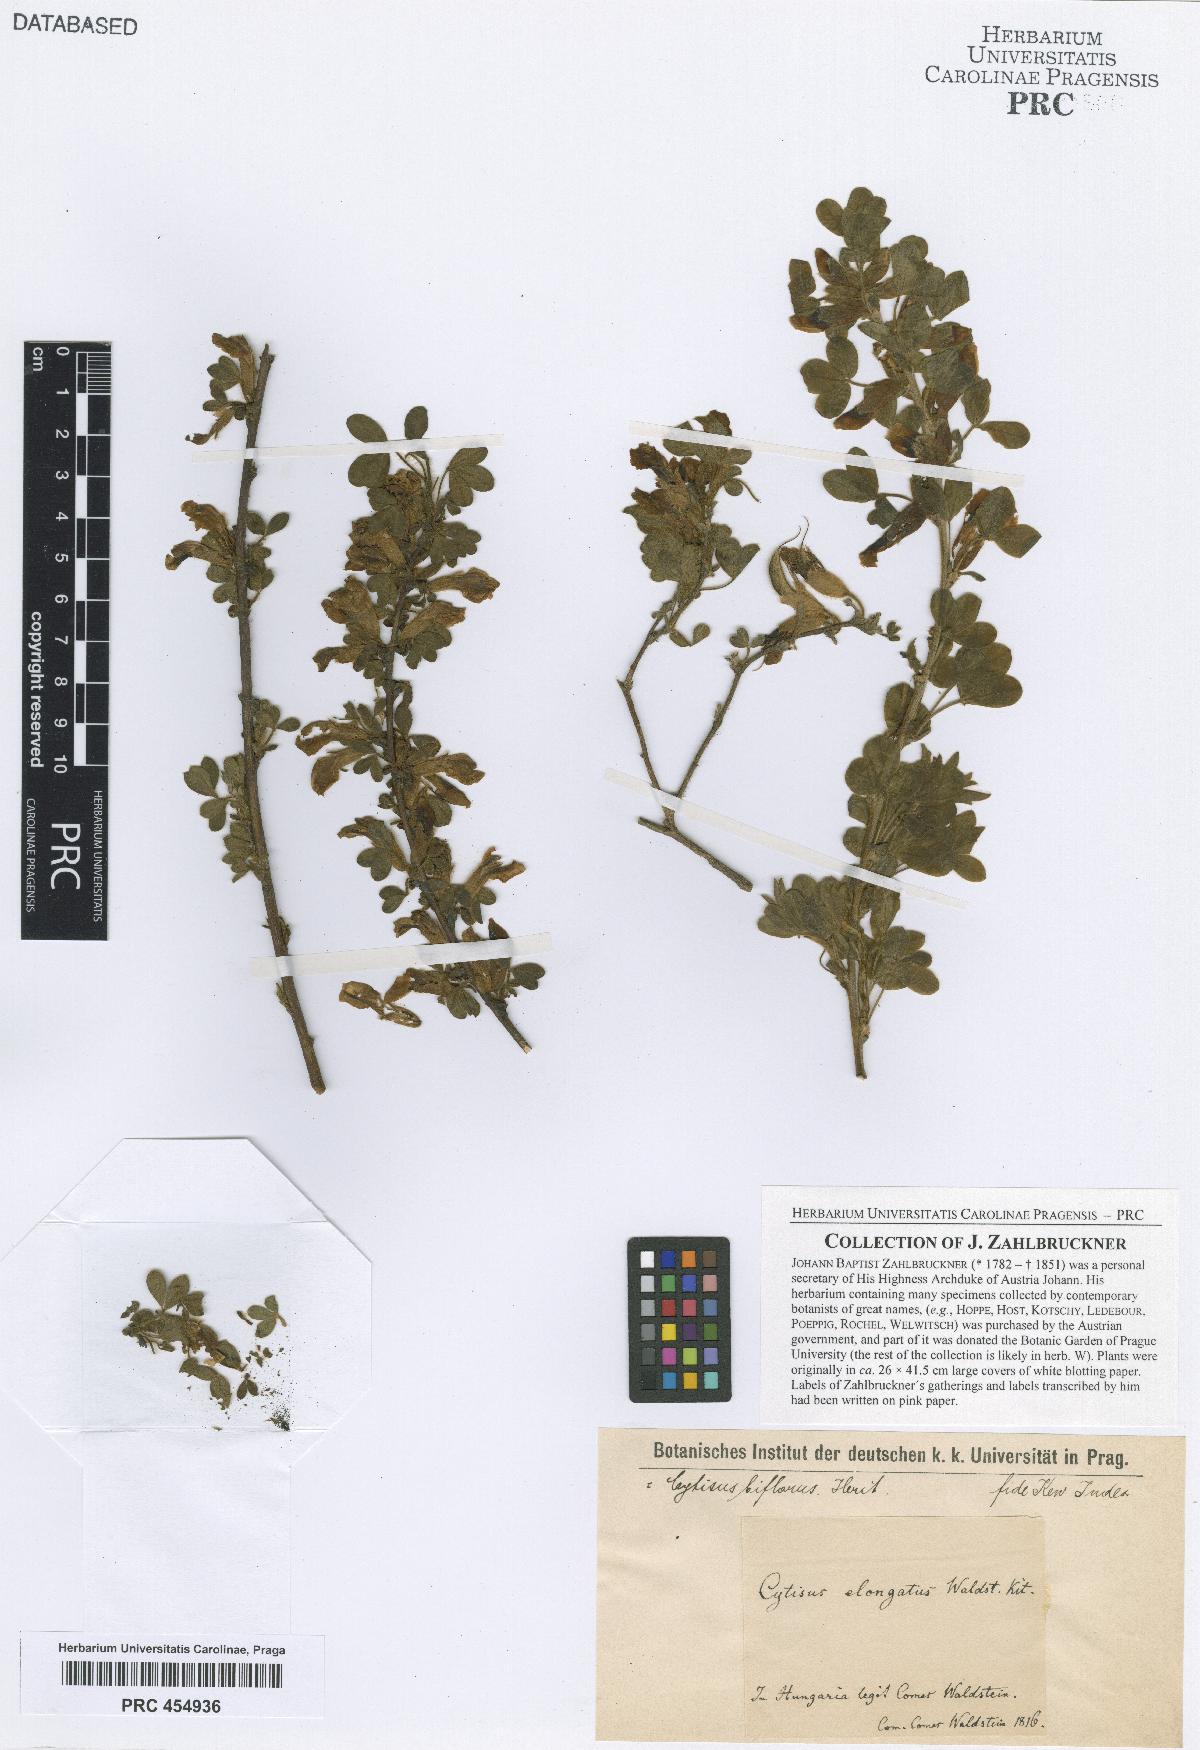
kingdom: Plantae
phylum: Tracheophyta
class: Magnoliopsida
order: Fabales
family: Fabaceae
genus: Chamaecytisus
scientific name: Chamaecytisus elongatus
